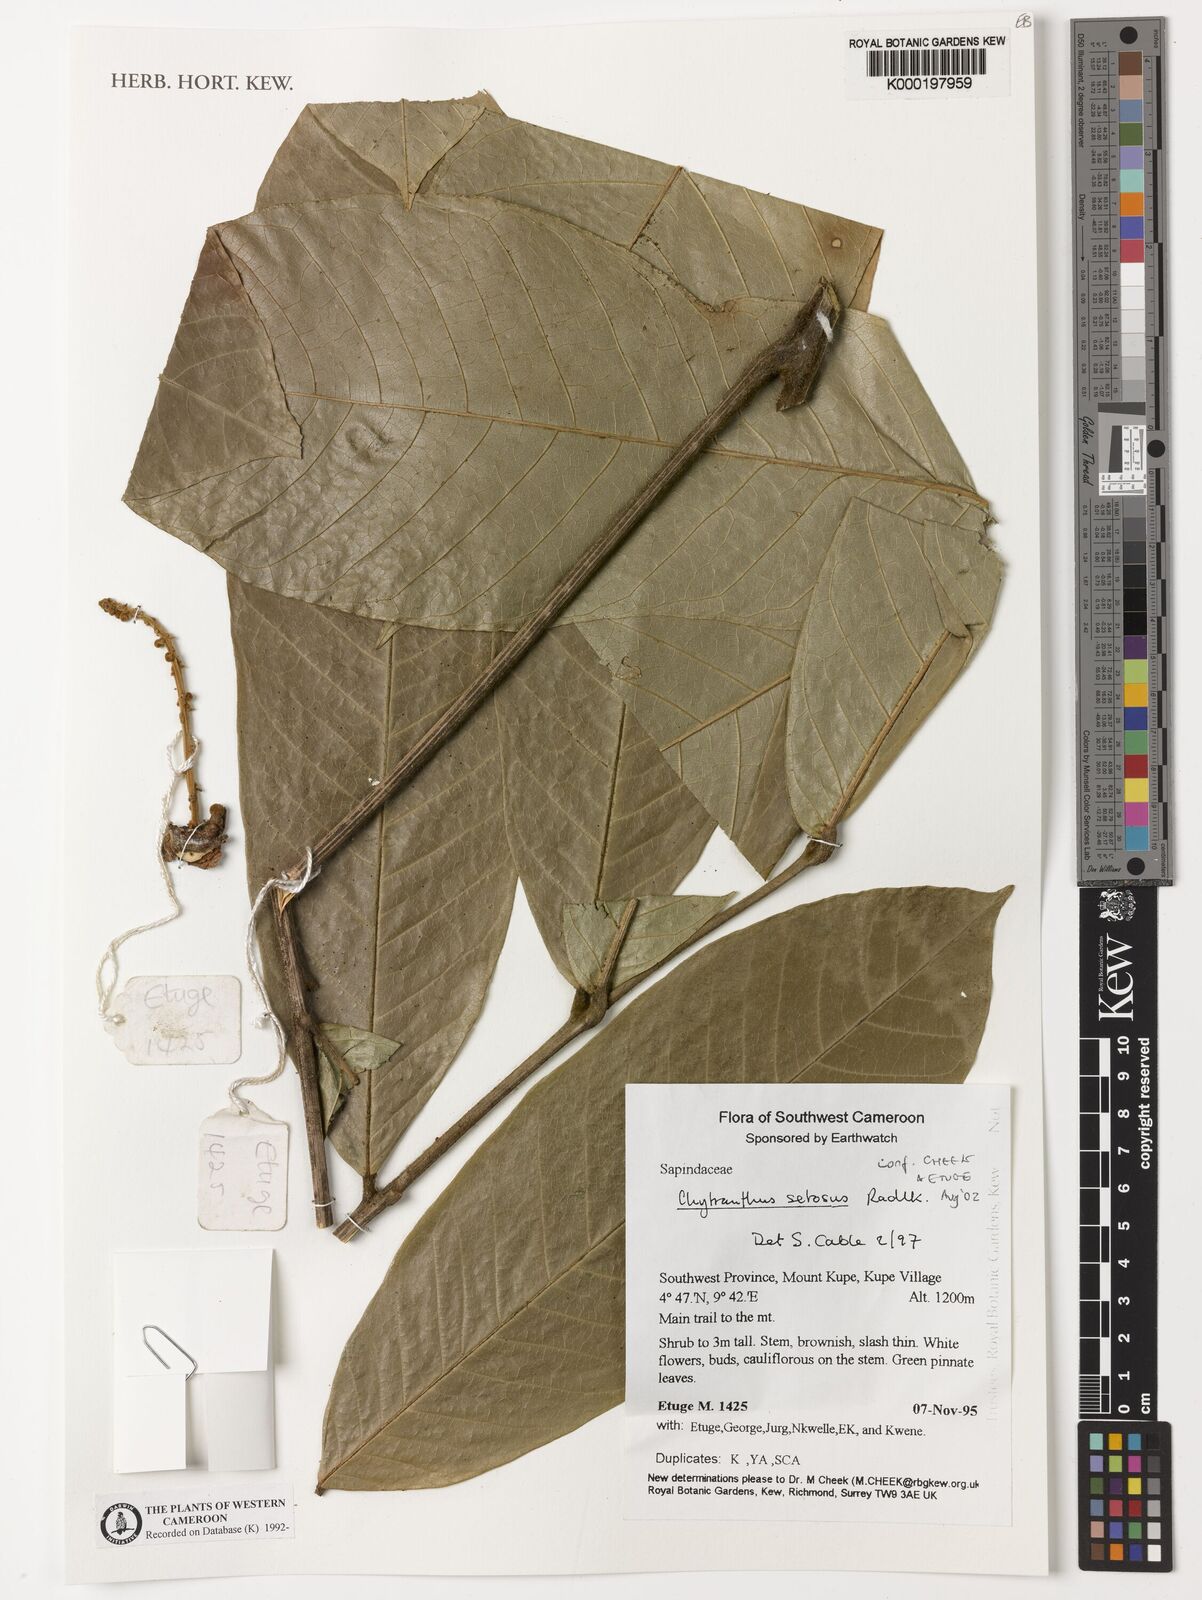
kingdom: Plantae
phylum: Tracheophyta
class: Magnoliopsida
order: Sapindales
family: Sapindaceae
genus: Chytranthus
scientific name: Chytranthus setosus
